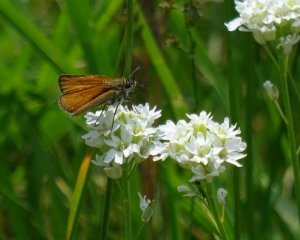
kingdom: Animalia
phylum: Arthropoda
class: Insecta
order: Lepidoptera
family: Hesperiidae
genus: Thymelicus
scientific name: Thymelicus lineola
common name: European Skipper
